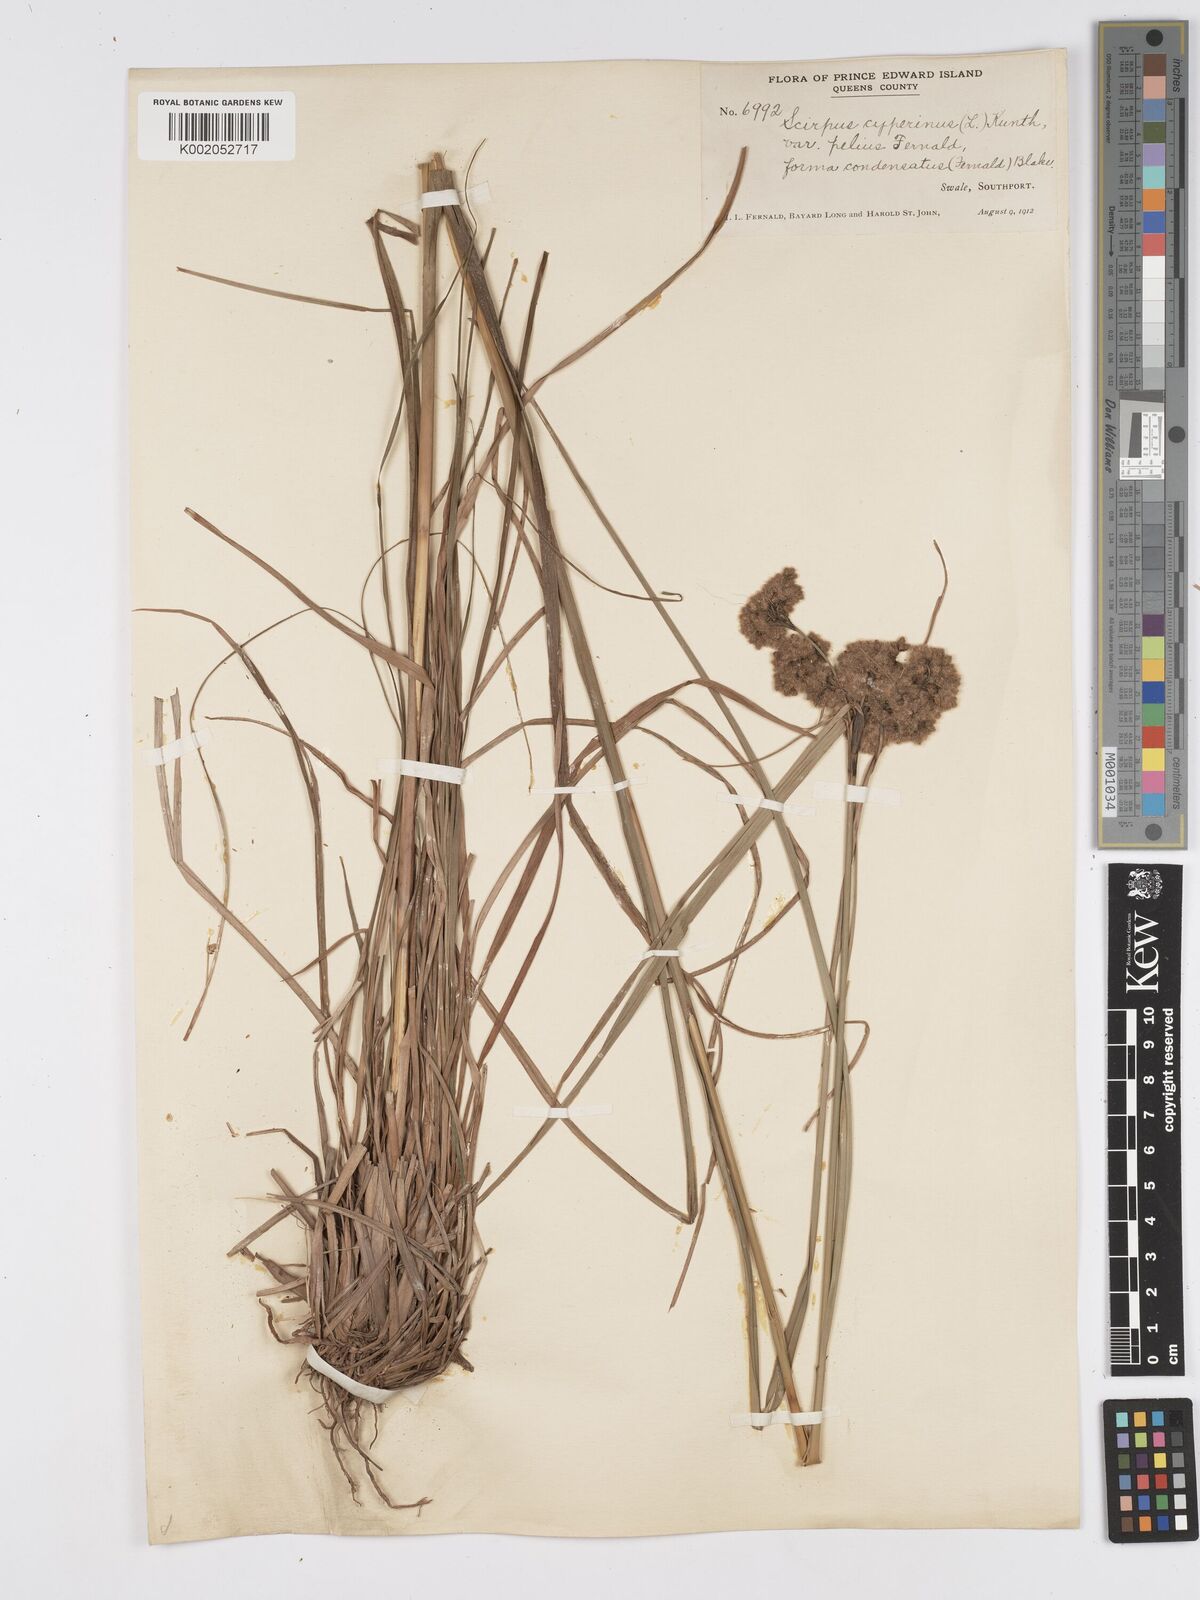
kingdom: Plantae
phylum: Tracheophyta
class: Liliopsida
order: Poales
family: Cyperaceae
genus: Scirpus
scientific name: Scirpus cyperinus
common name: Black-sheathed bulrush
